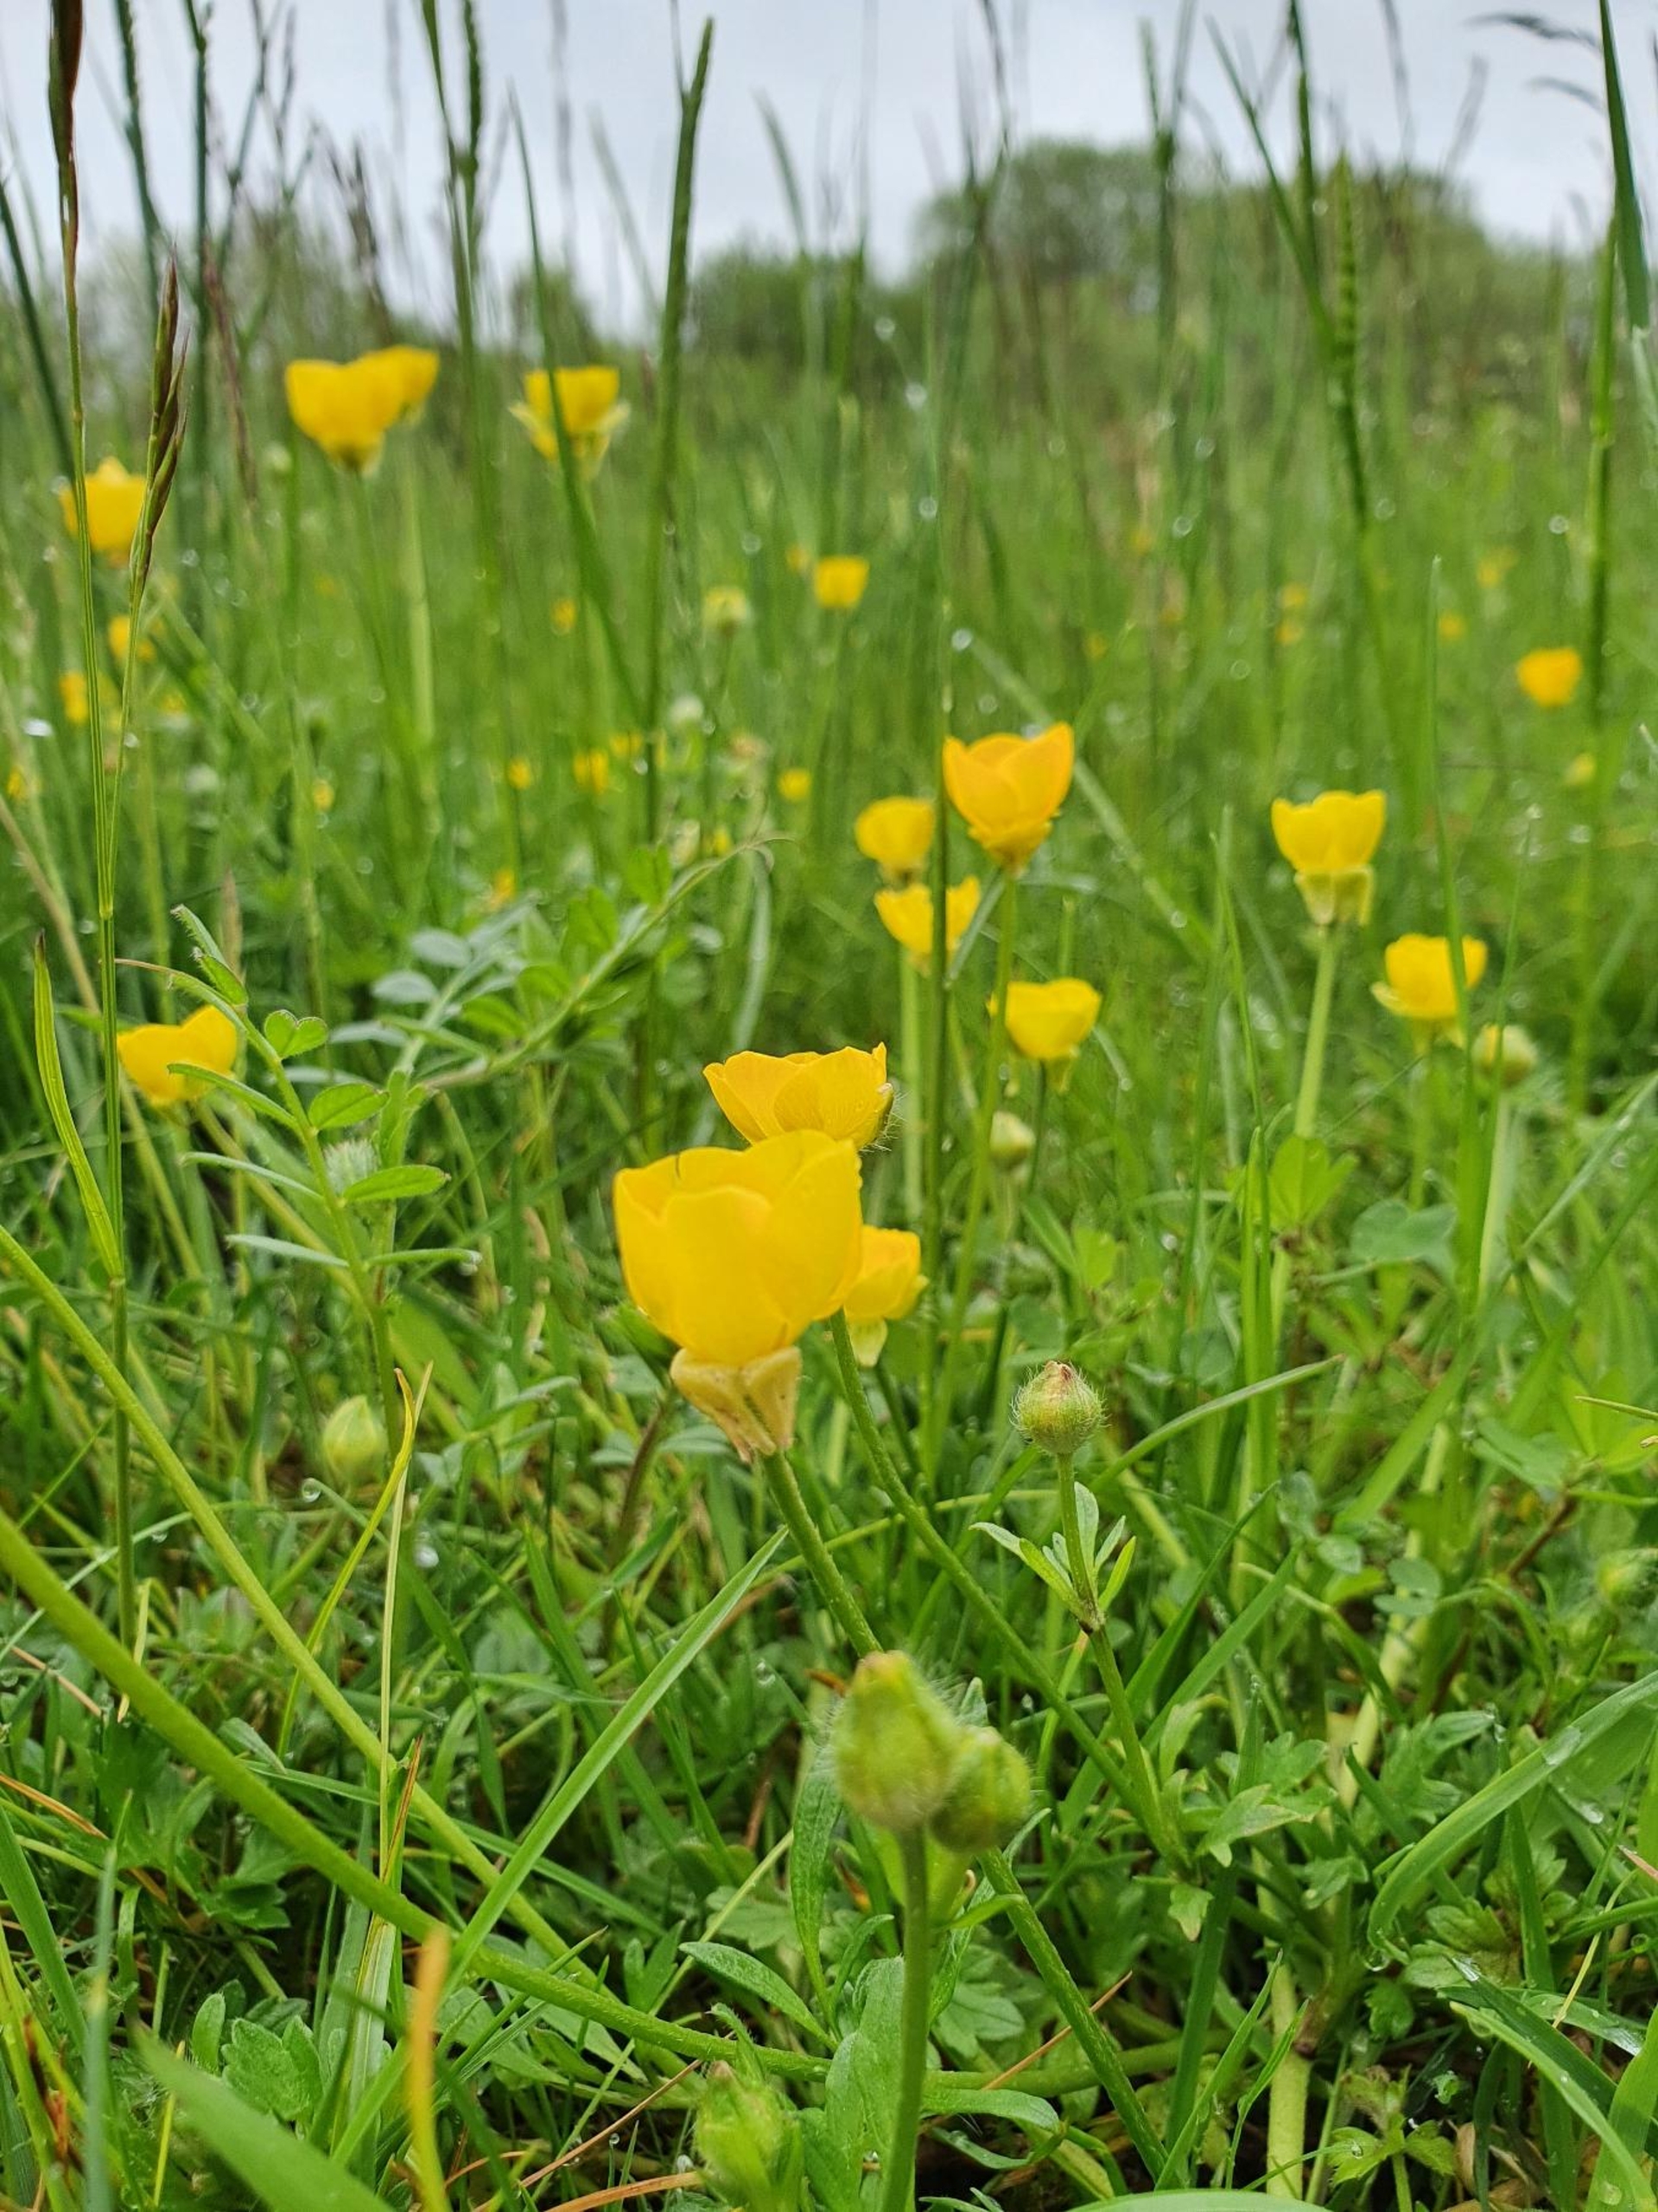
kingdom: Plantae
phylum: Tracheophyta
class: Magnoliopsida
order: Ranunculales
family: Ranunculaceae
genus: Ranunculus
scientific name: Ranunculus bulbosus
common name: Knold-ranunkel
